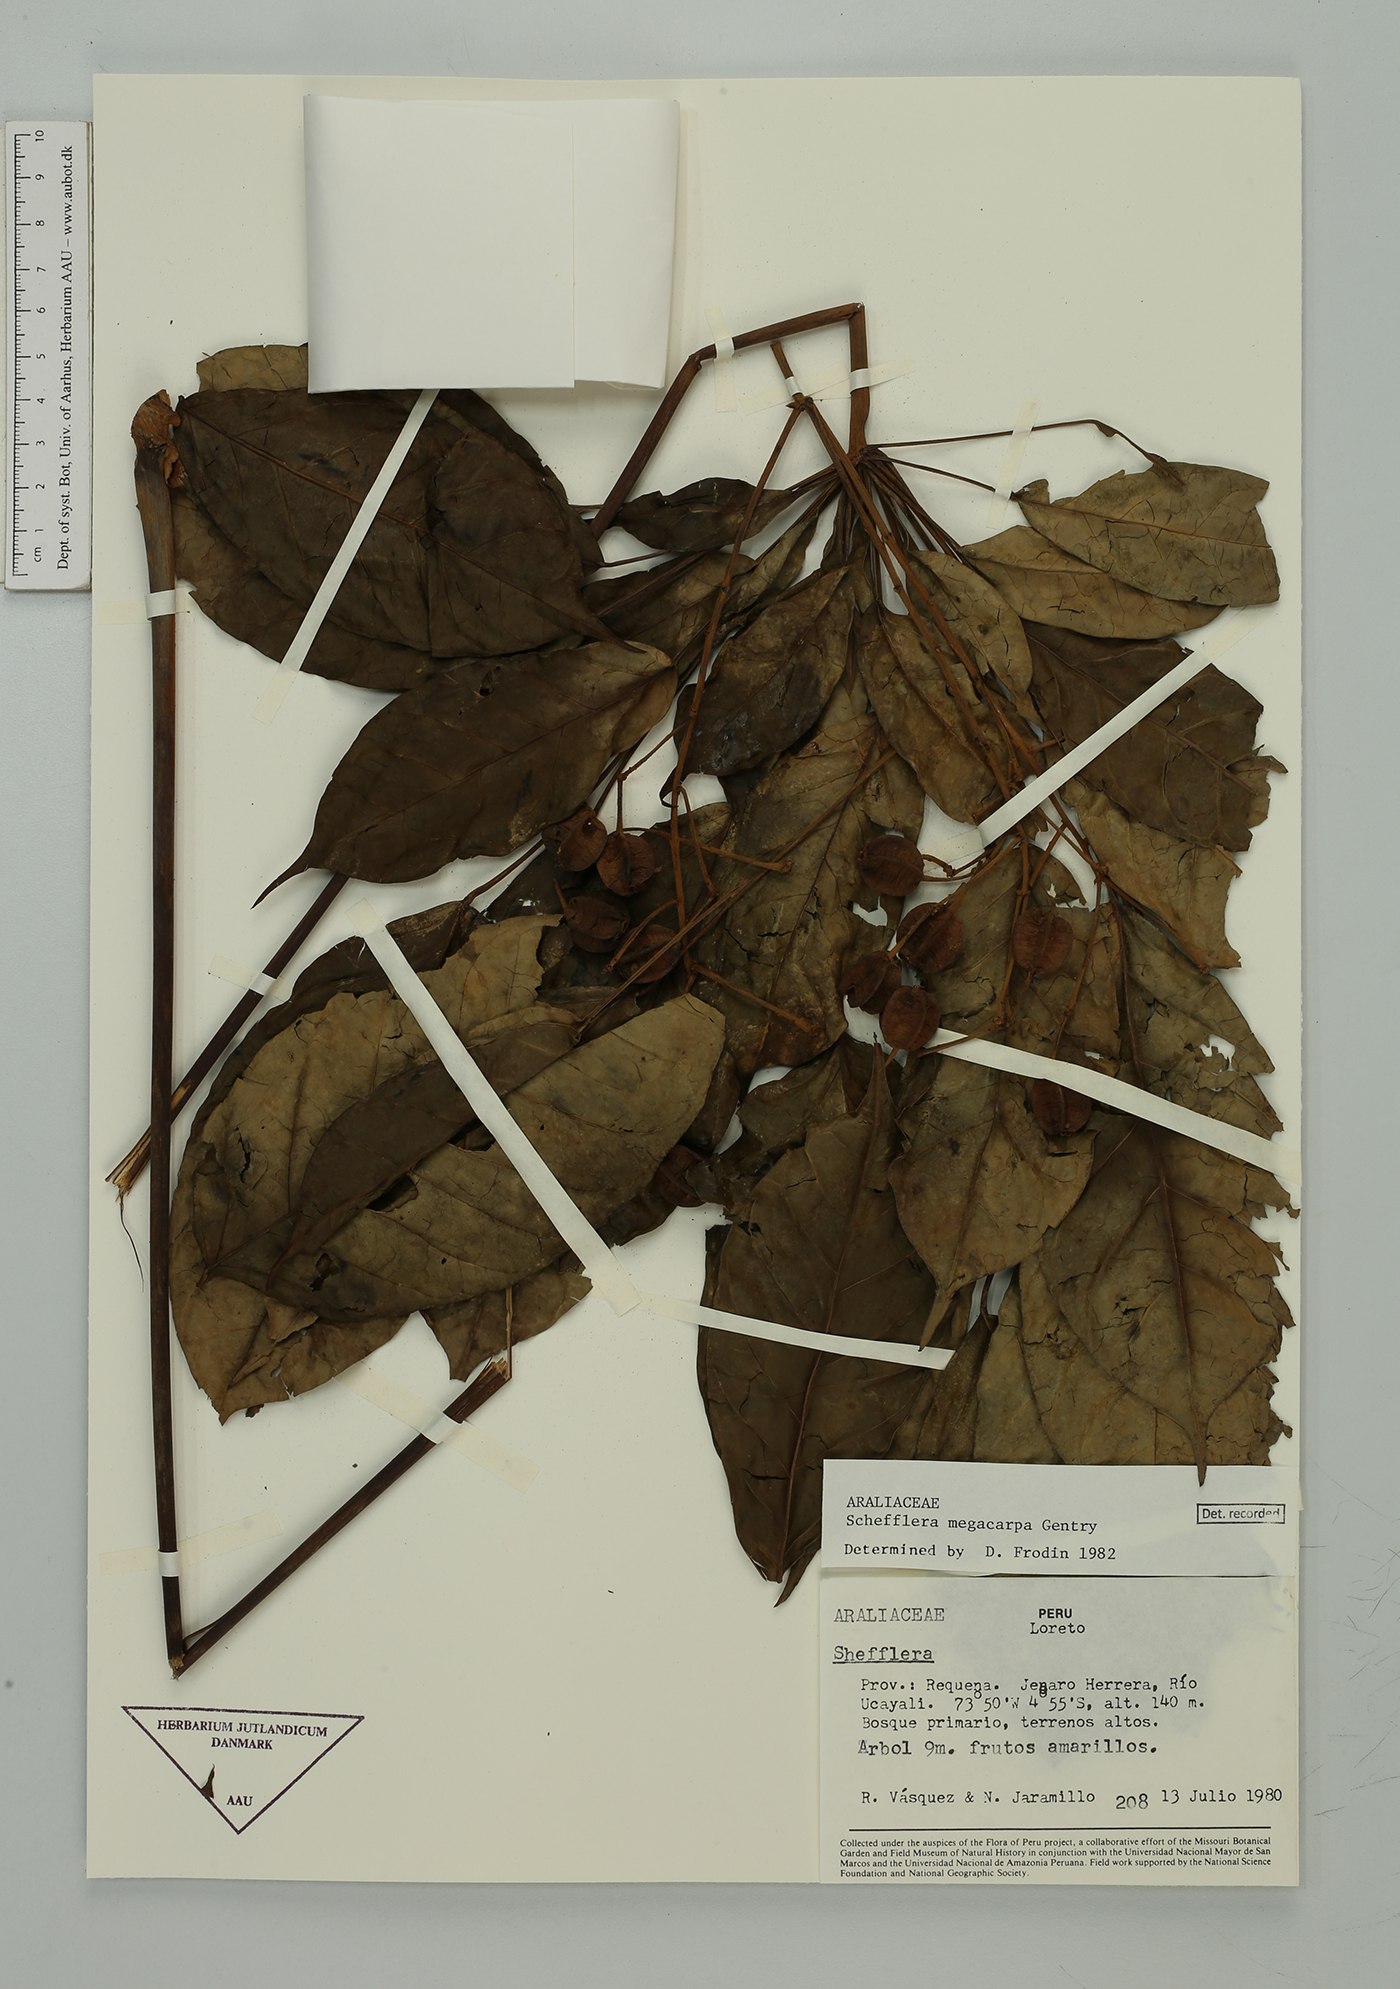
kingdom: Plantae
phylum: Tracheophyta
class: Magnoliopsida
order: Apiales
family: Araliaceae
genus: Didymopanax
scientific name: Didymopanax confusus
